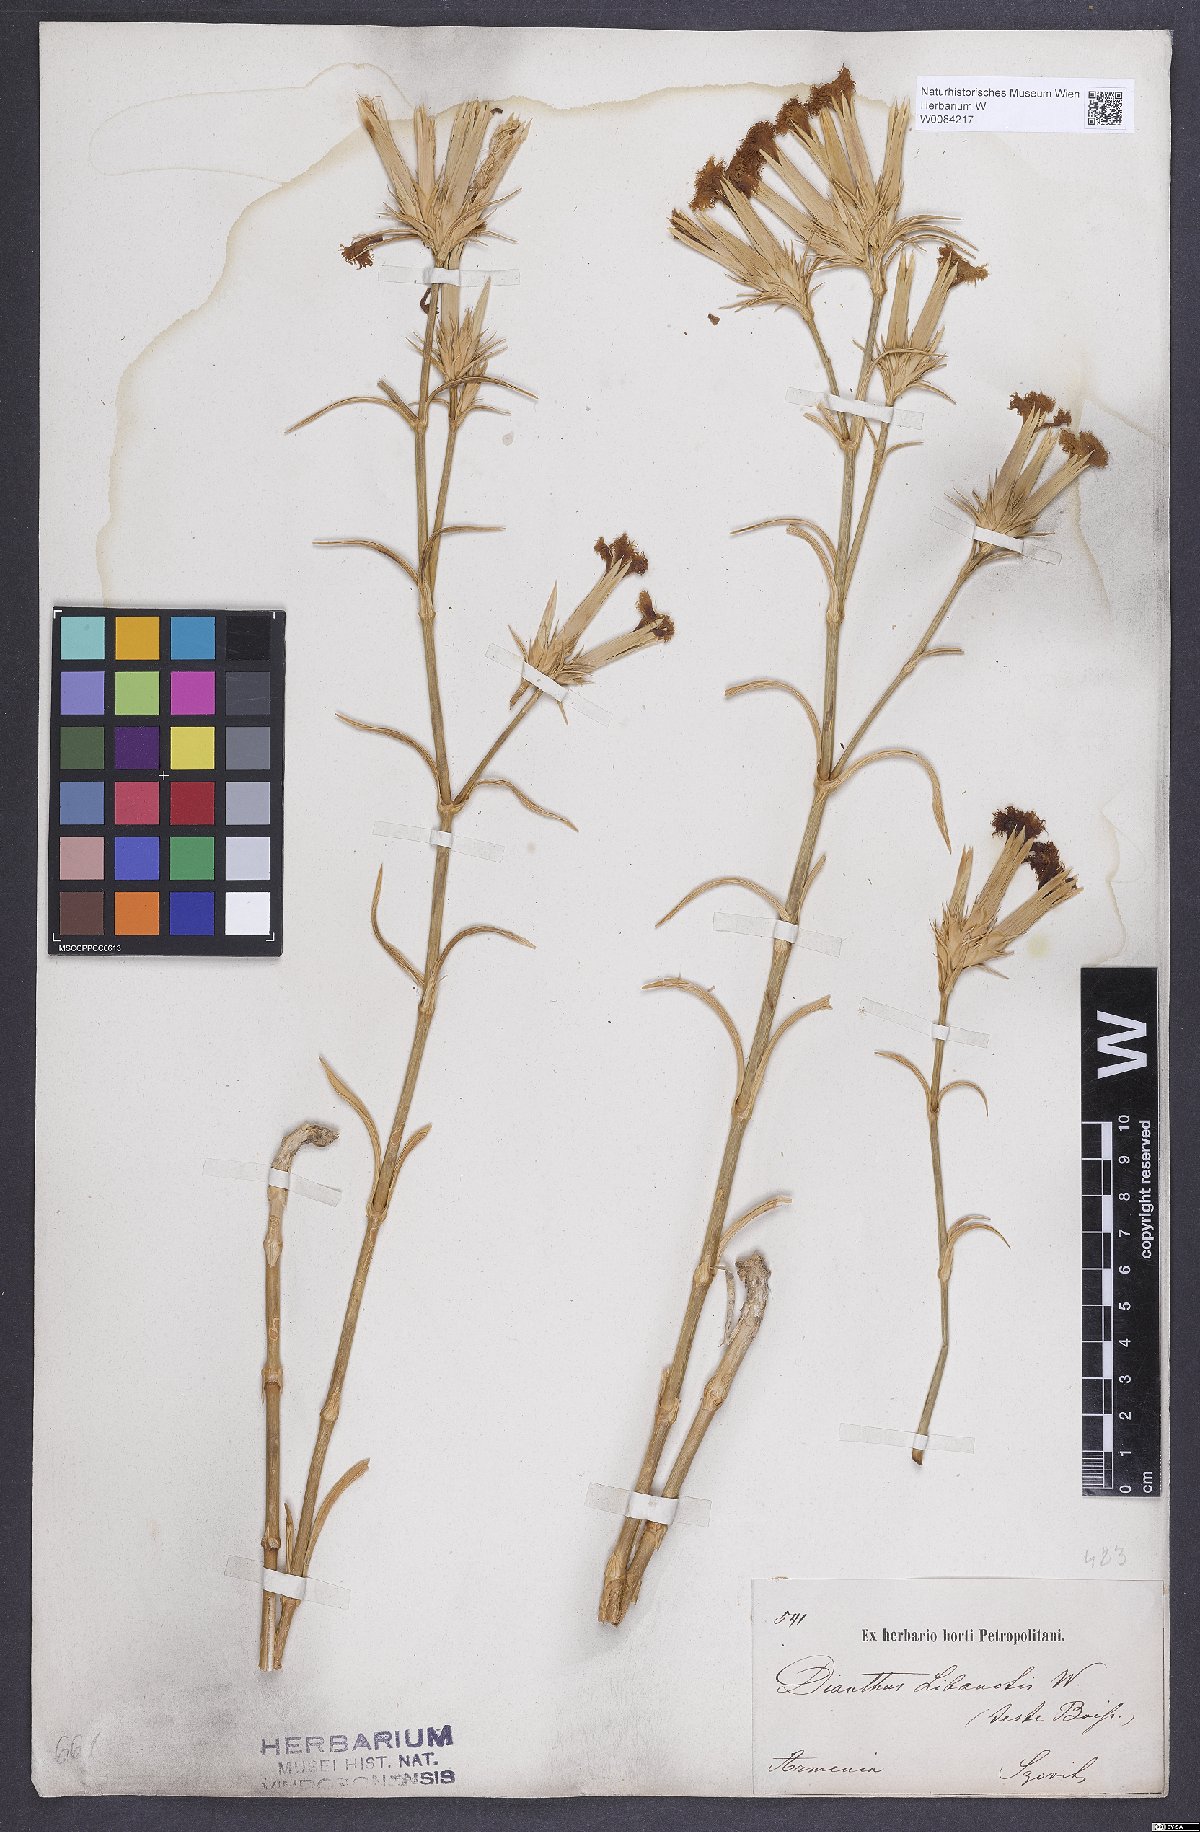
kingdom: Plantae
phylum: Tracheophyta
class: Magnoliopsida
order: Caryophyllales
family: Caryophyllaceae
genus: Dianthus
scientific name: Dianthus libanotis
